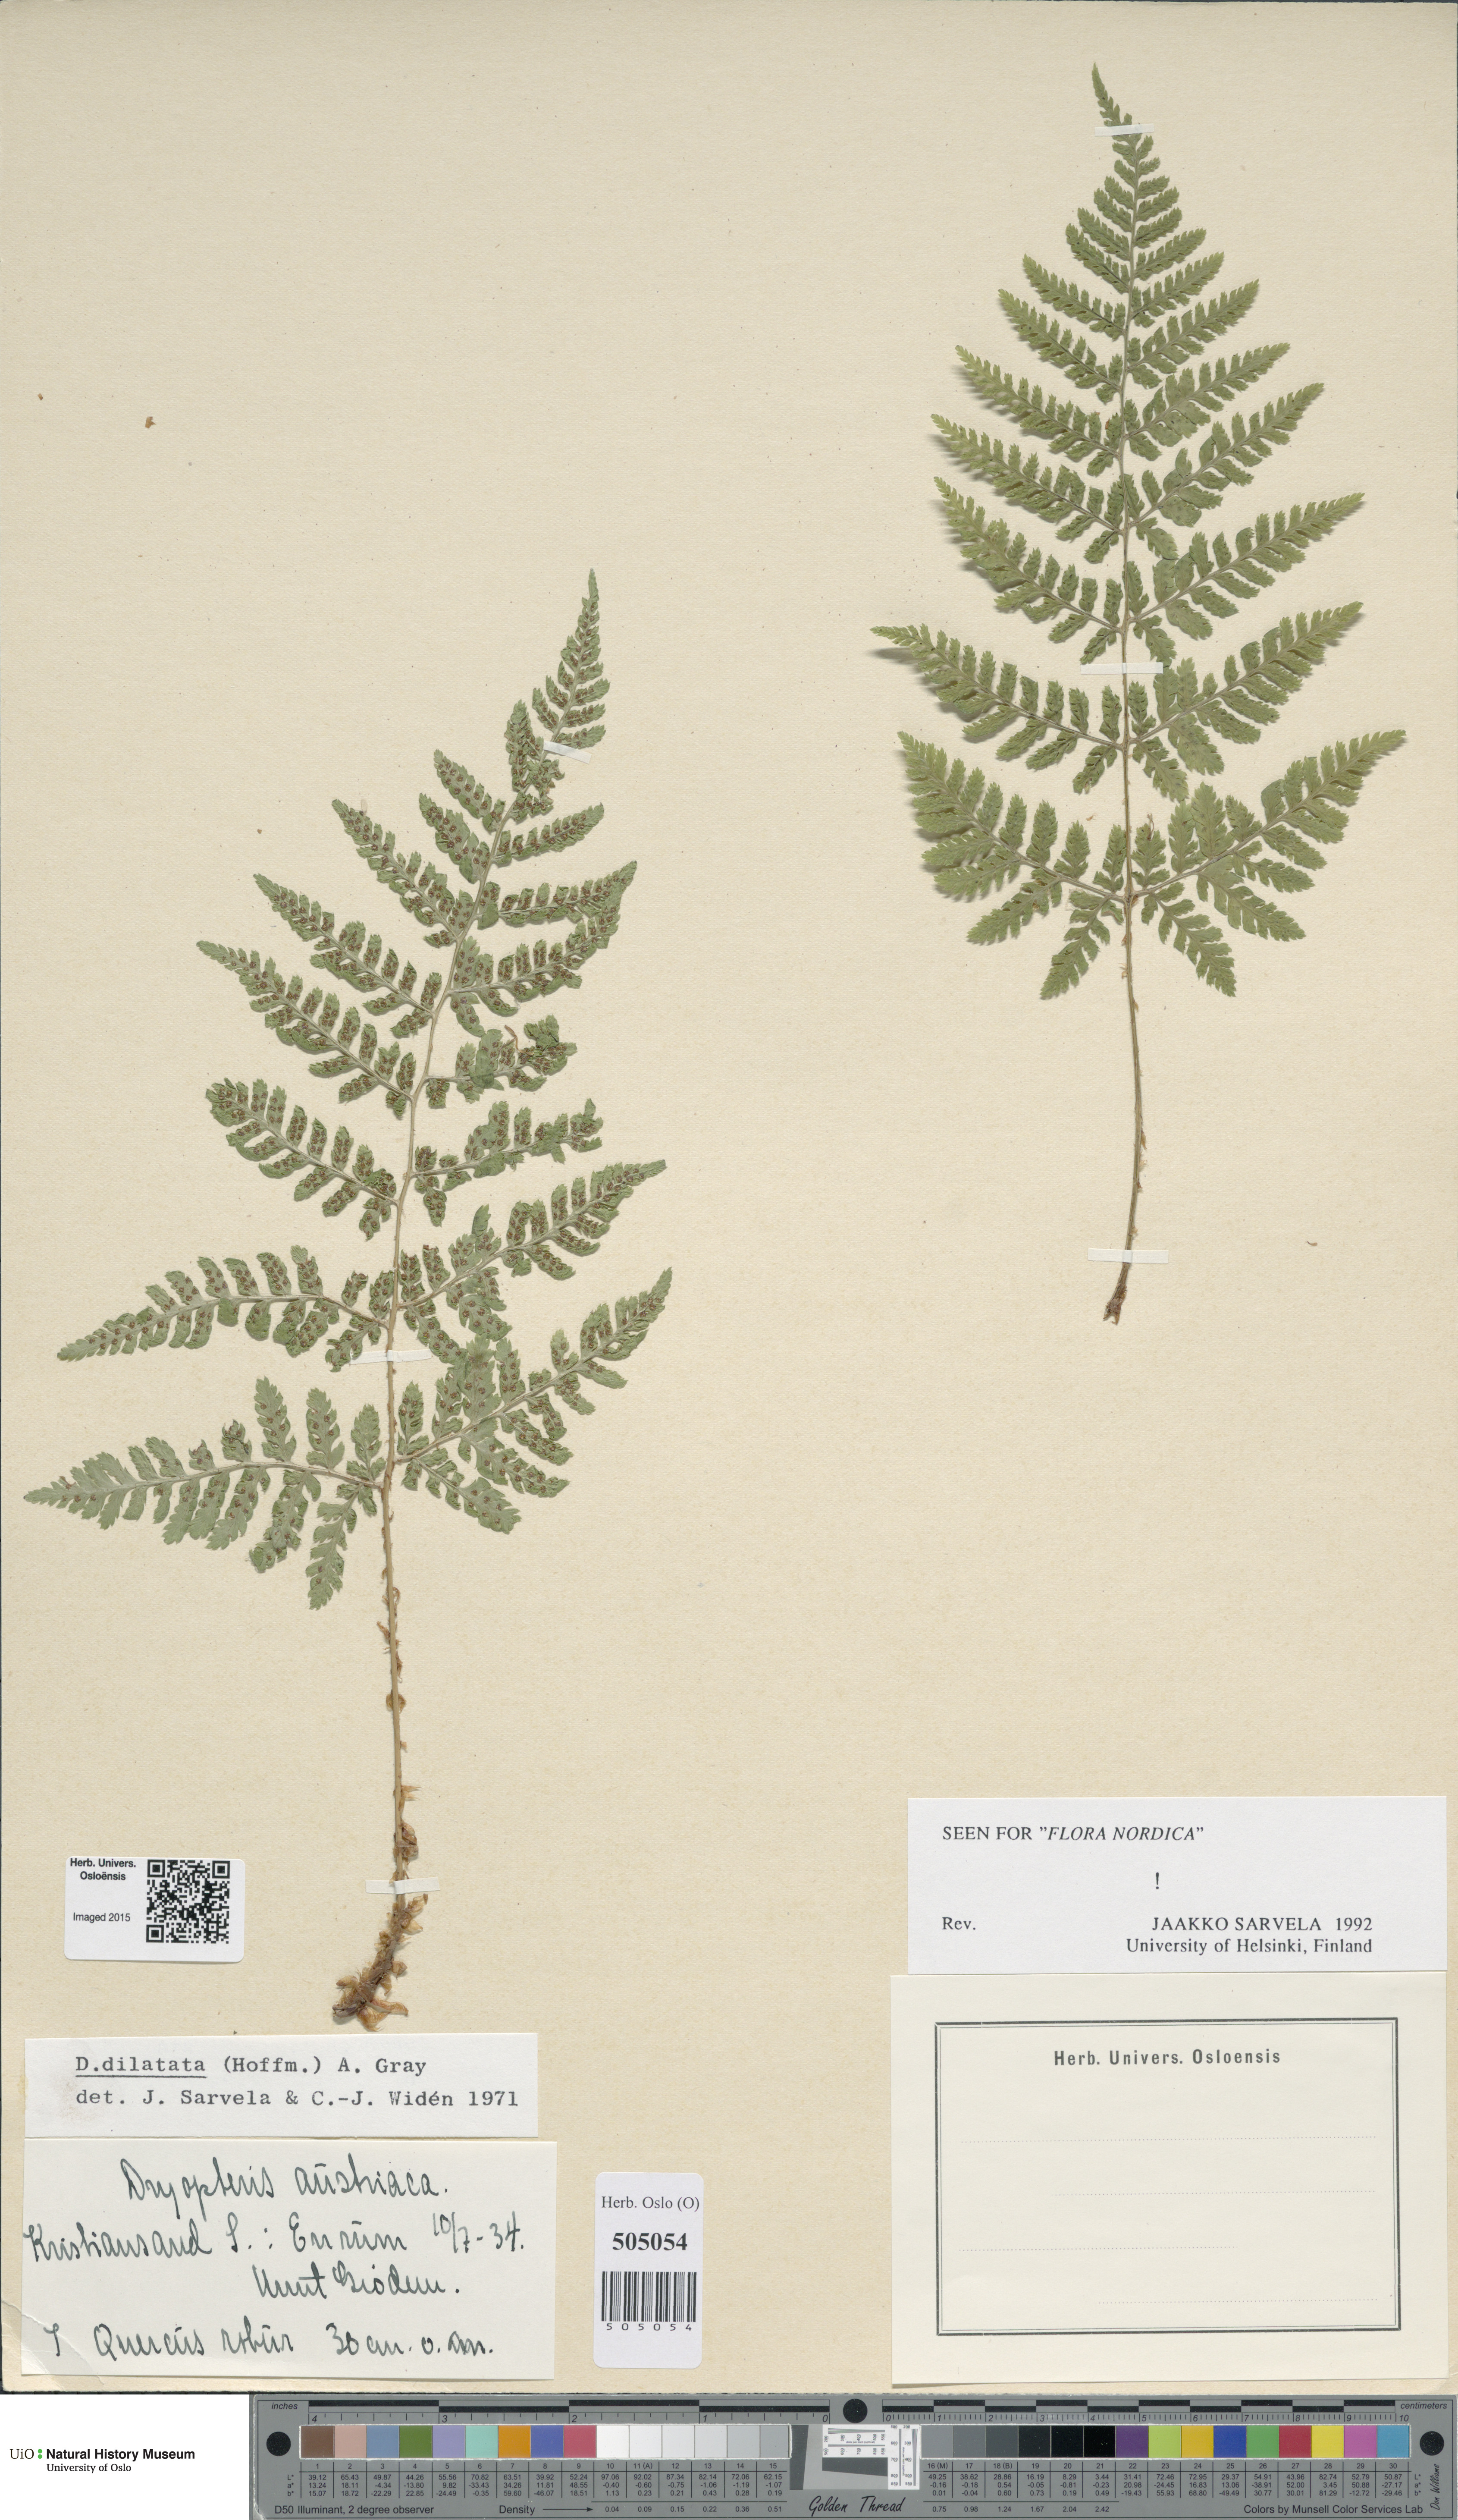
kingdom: Plantae
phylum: Tracheophyta
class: Polypodiopsida
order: Polypodiales
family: Dryopteridaceae
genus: Dryopteris
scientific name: Dryopteris dilatata
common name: Broad buckler-fern
